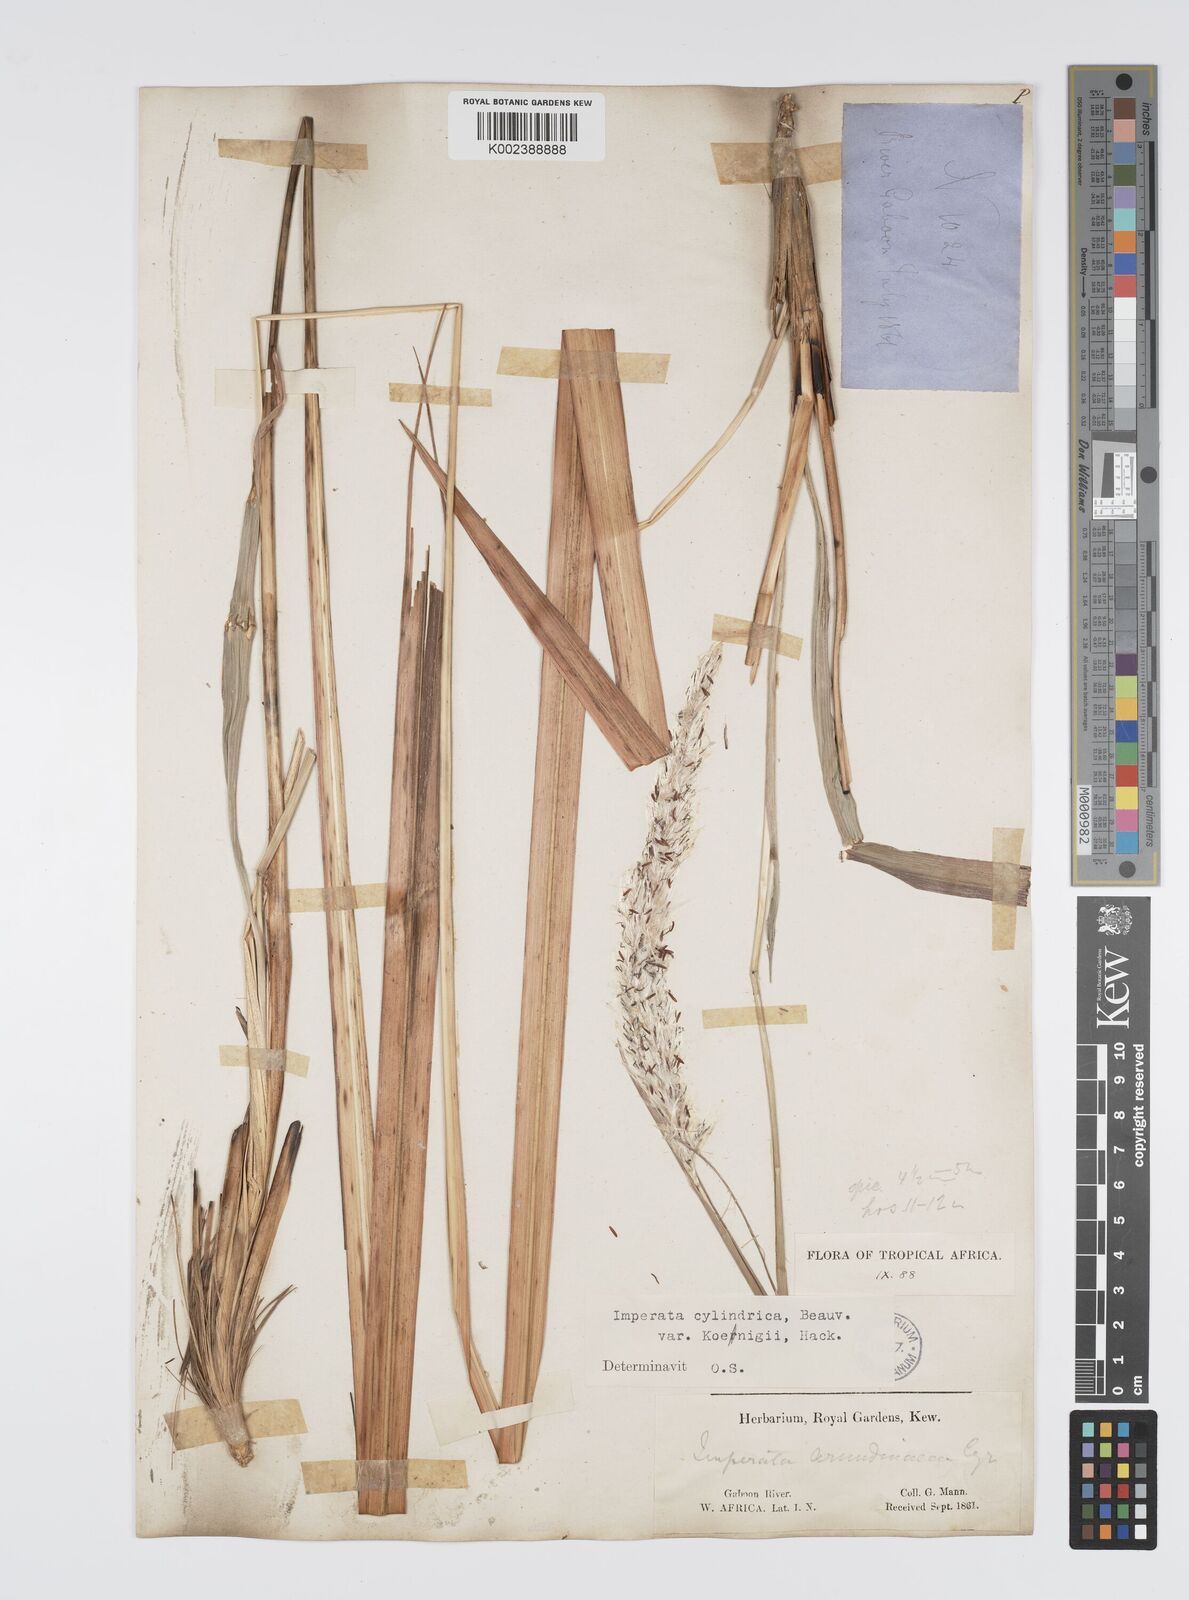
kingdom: Plantae
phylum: Tracheophyta
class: Liliopsida
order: Poales
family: Poaceae
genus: Imperata
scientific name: Imperata cylindrica
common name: Cogongrass
